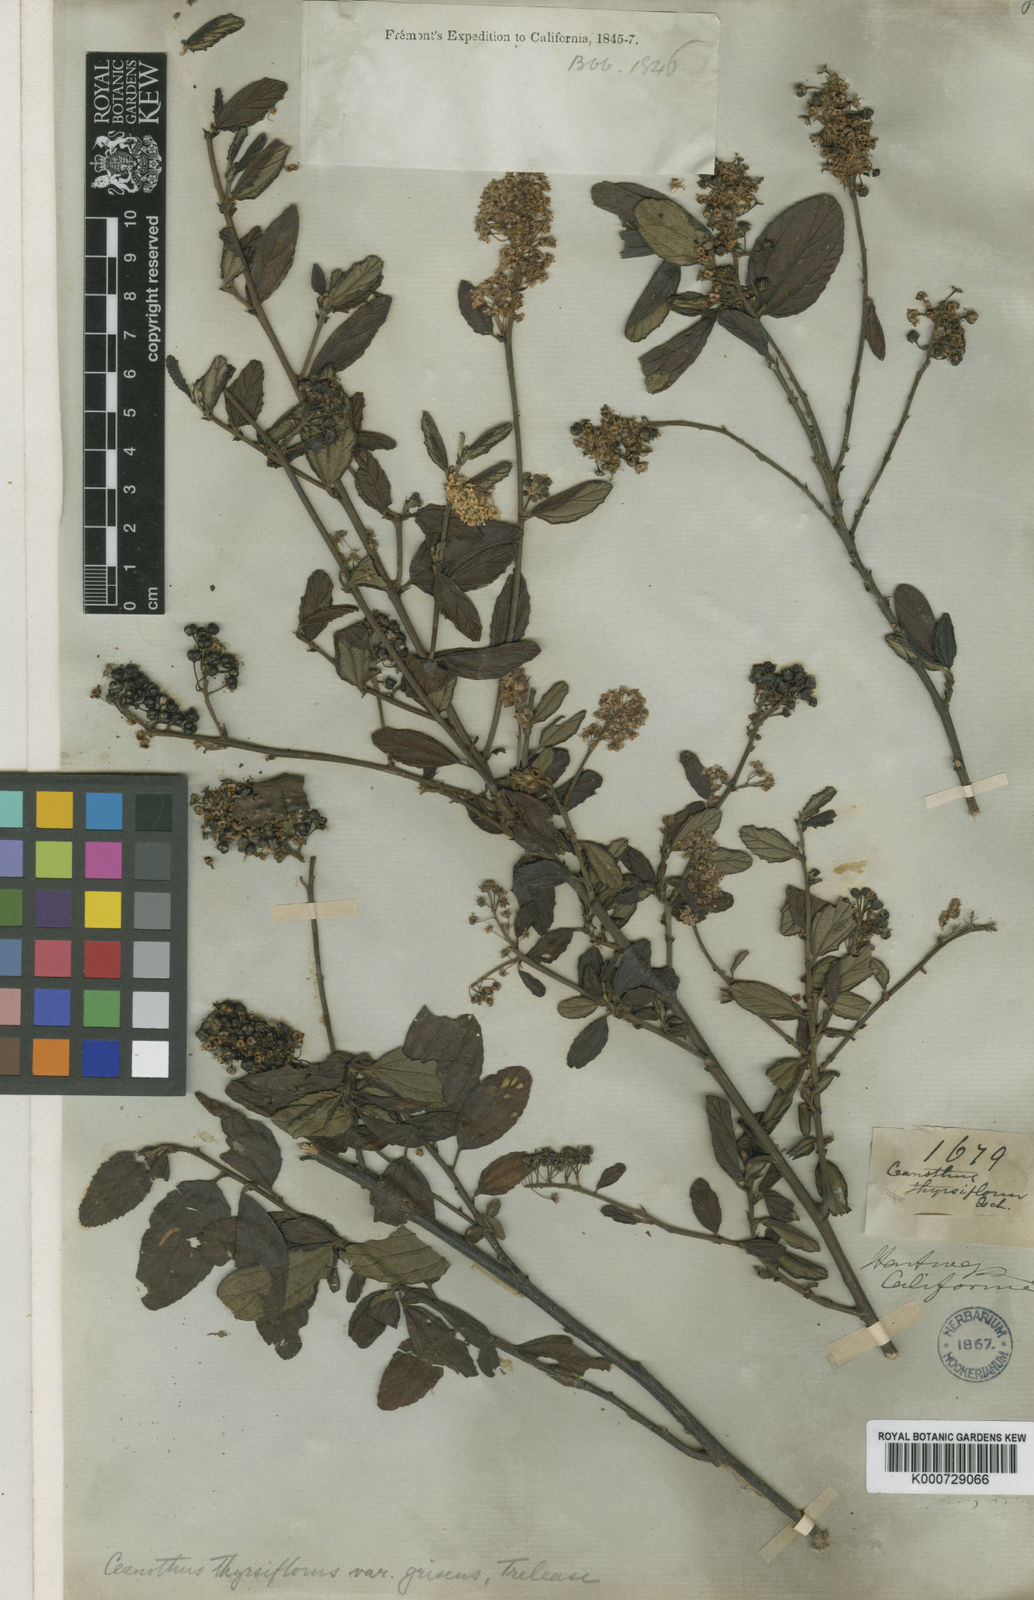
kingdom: Plantae
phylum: Tracheophyta
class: Magnoliopsida
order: Rosales
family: Rhamnaceae
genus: Ceanothus
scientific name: Ceanothus griseus
